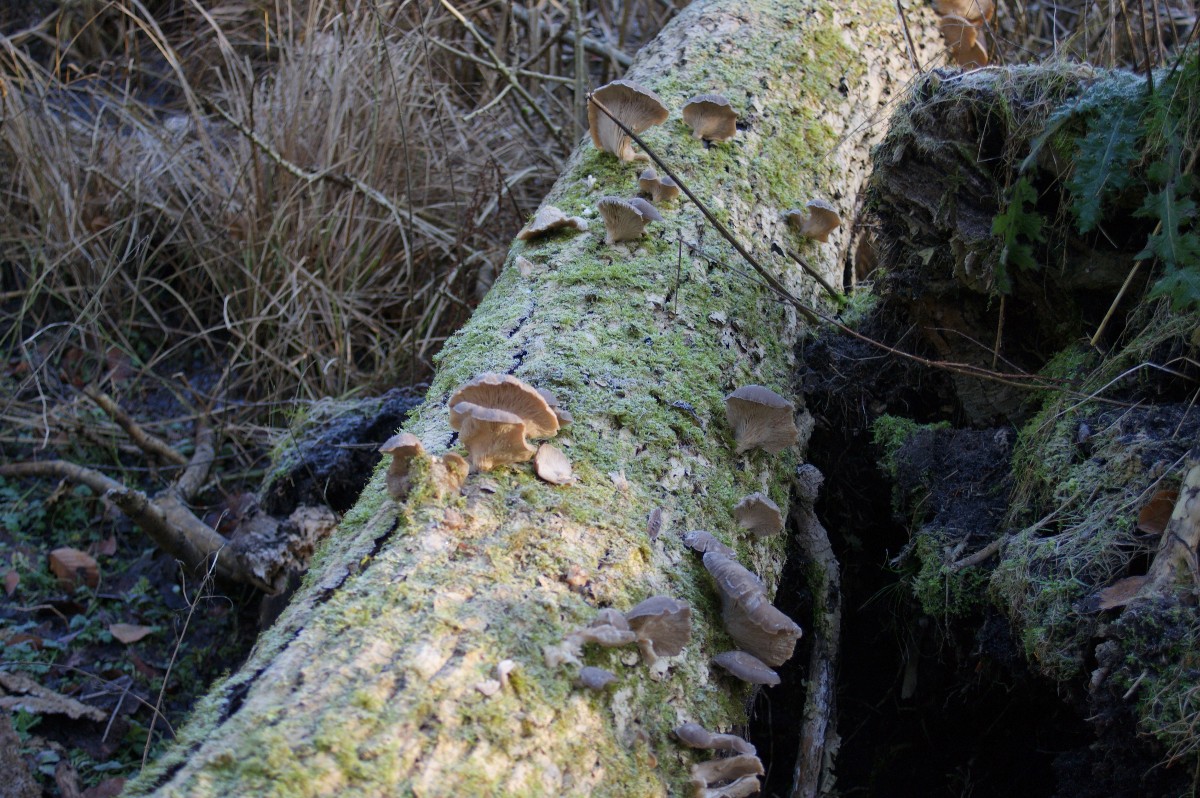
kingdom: Fungi
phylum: Basidiomycota
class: Agaricomycetes
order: Agaricales
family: Pleurotaceae
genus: Pleurotus
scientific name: Pleurotus ostreatus
